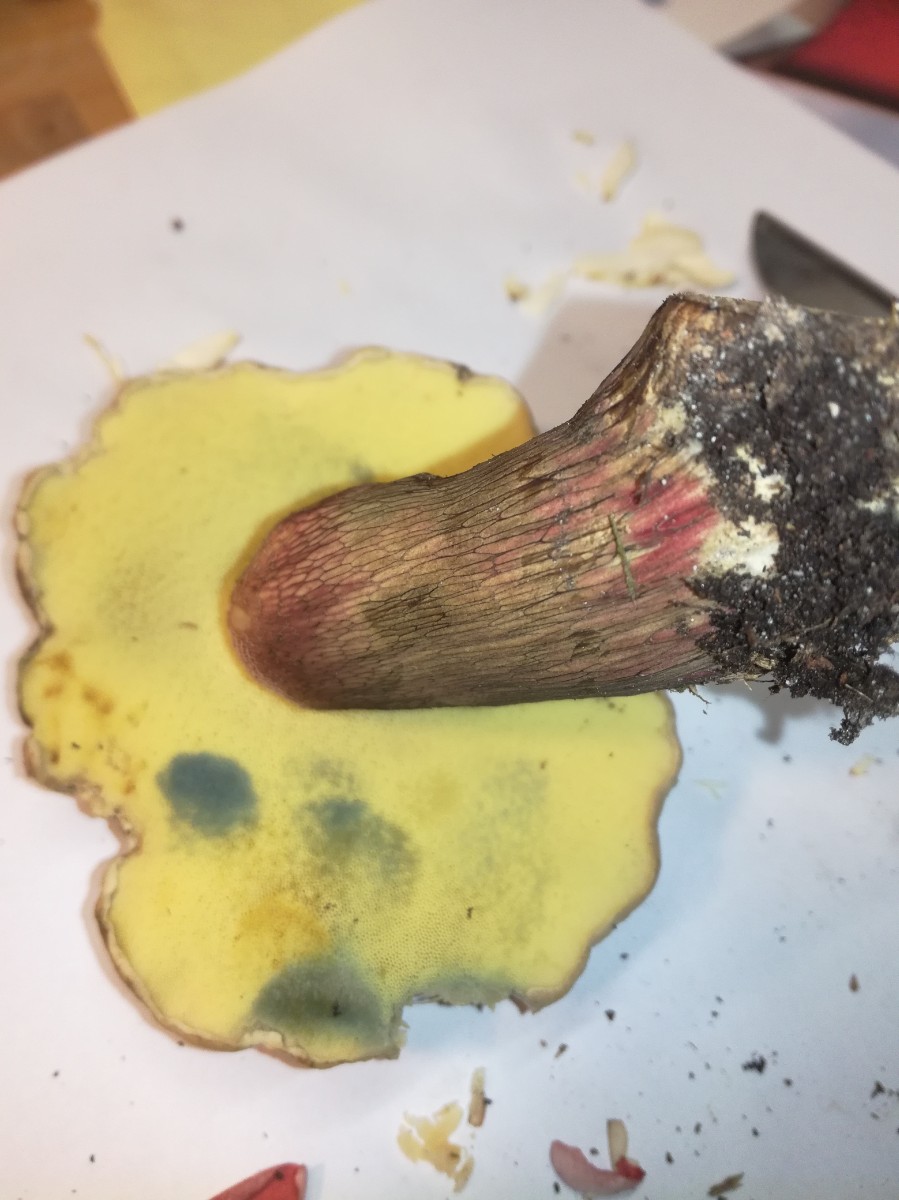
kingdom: Fungi
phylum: Basidiomycota
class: Agaricomycetes
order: Boletales
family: Boletaceae
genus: Caloboletus
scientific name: Caloboletus calopus
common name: skønfodet rørhat
